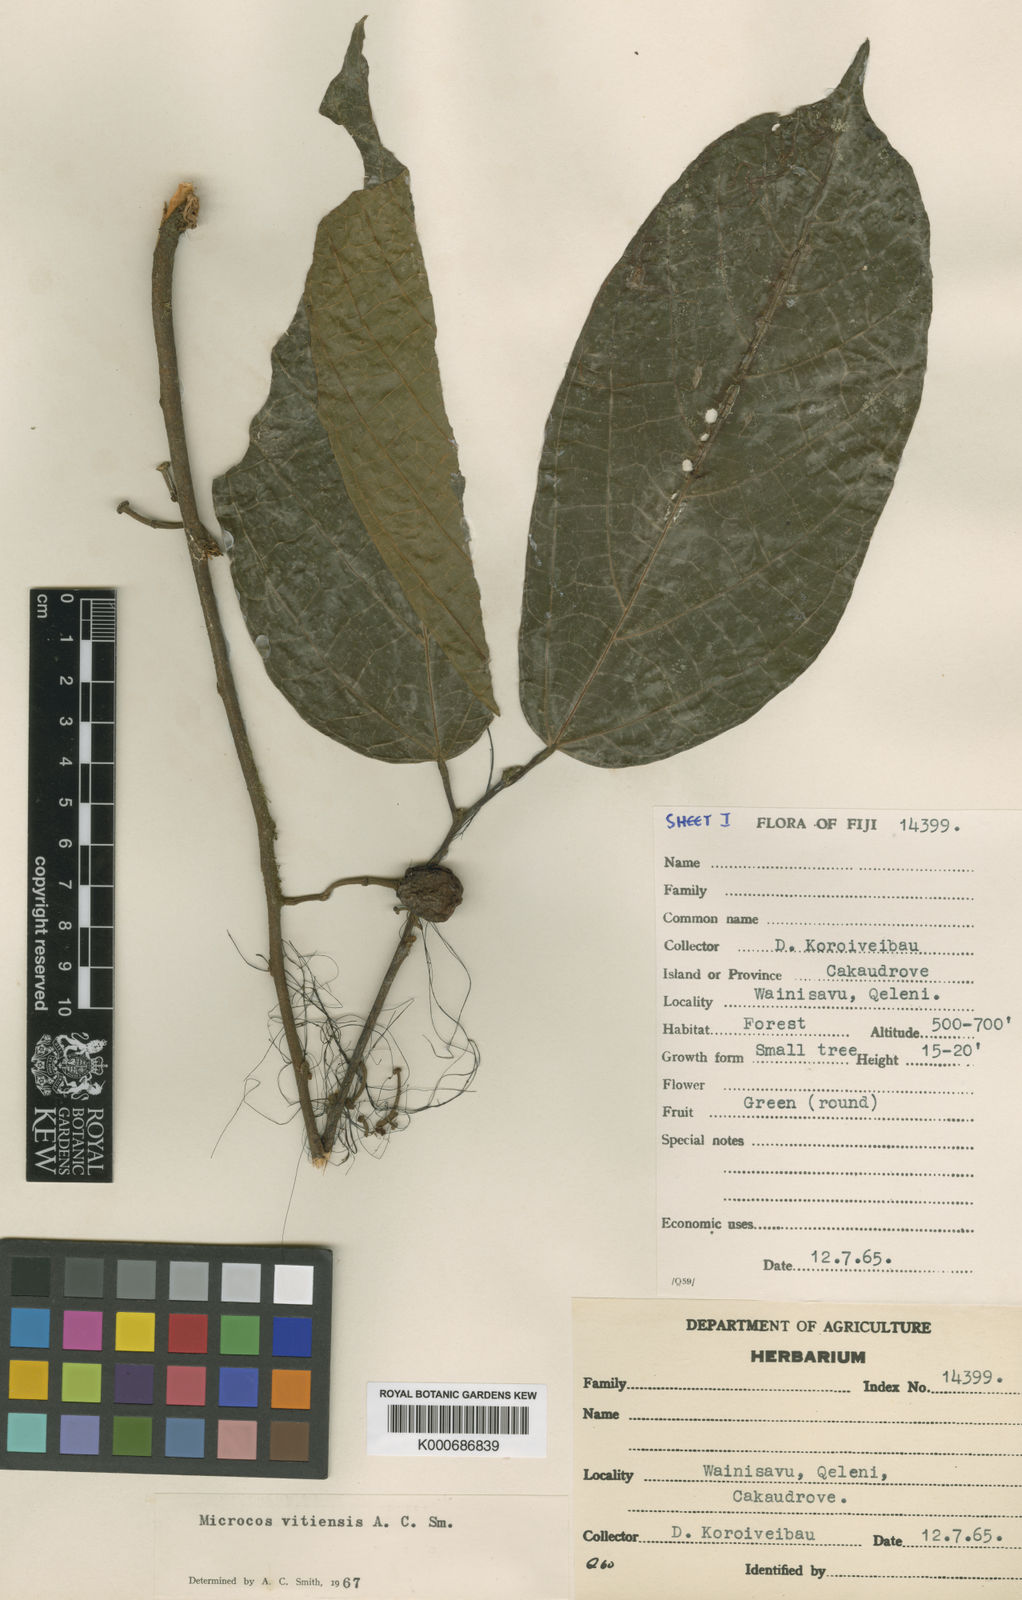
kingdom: Plantae
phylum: Tracheophyta
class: Magnoliopsida
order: Malvales
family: Malvaceae
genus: Microcos
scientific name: Microcos vitiensis
